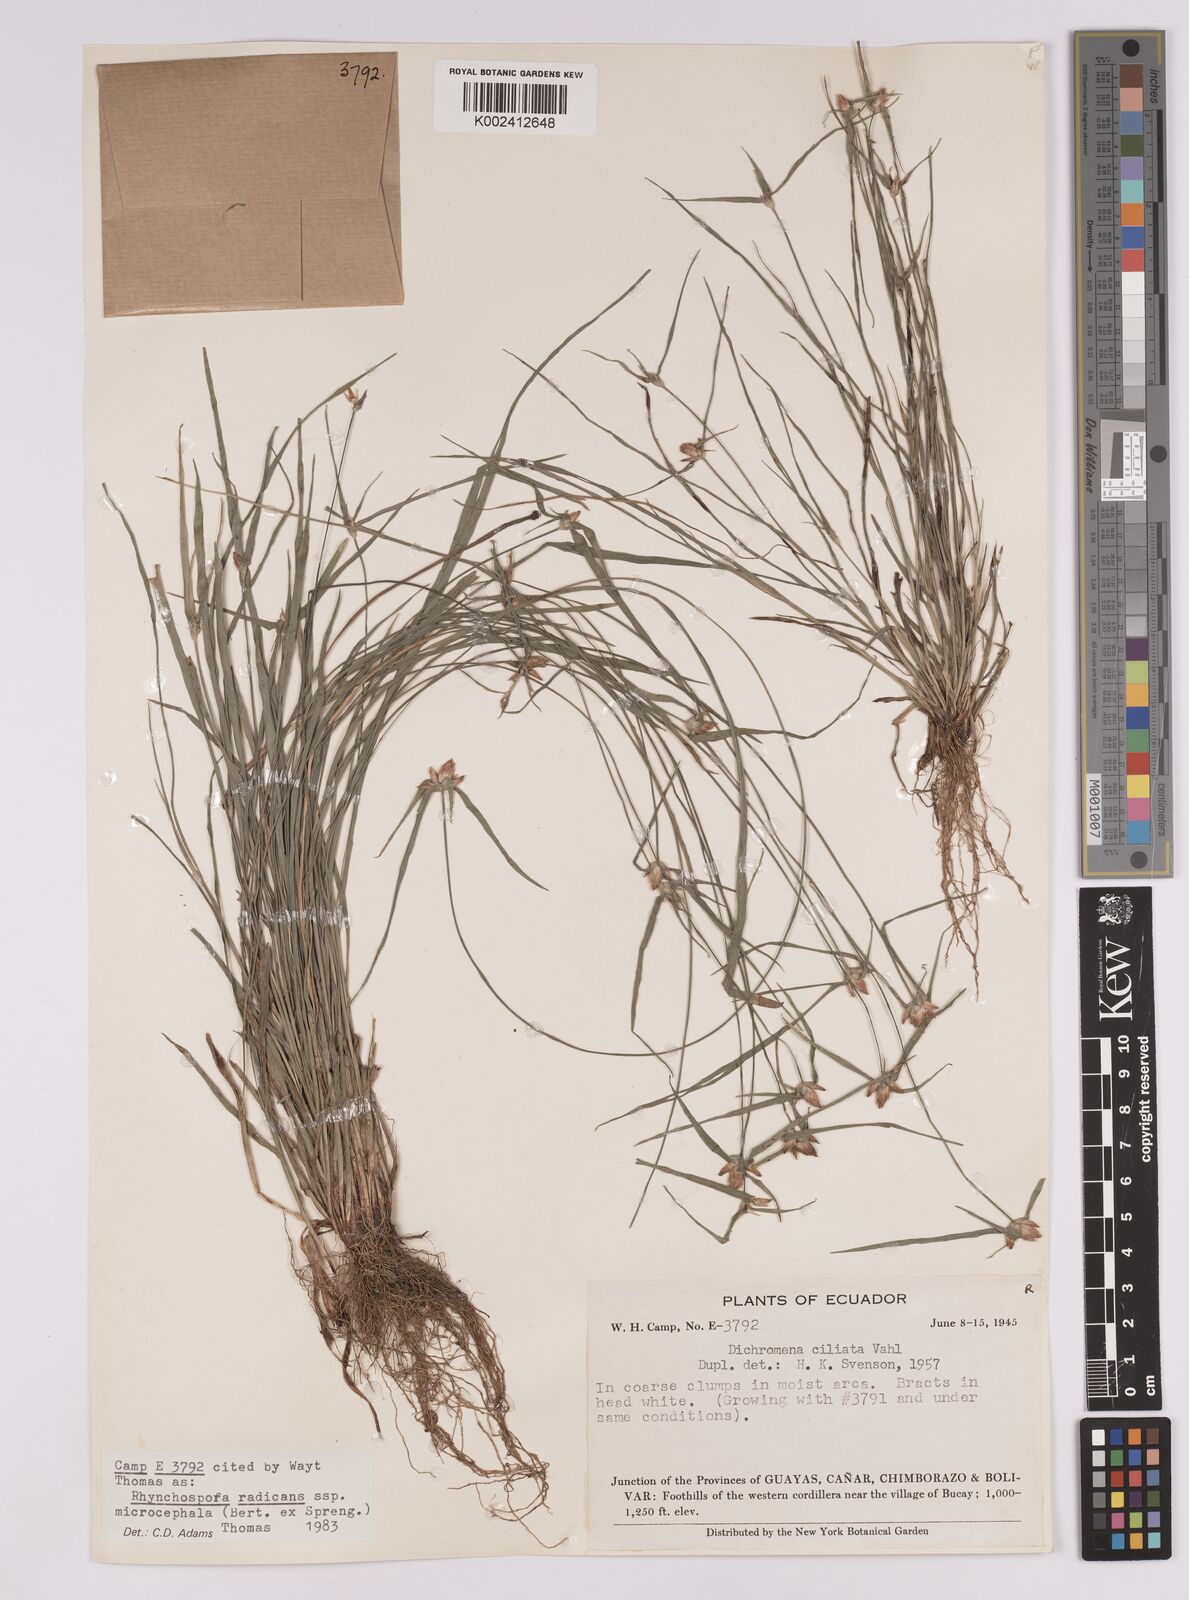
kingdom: Plantae
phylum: Tracheophyta
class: Liliopsida
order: Poales
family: Cyperaceae
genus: Rhynchospora
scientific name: Rhynchospora radicans
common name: Tropical whitetop
